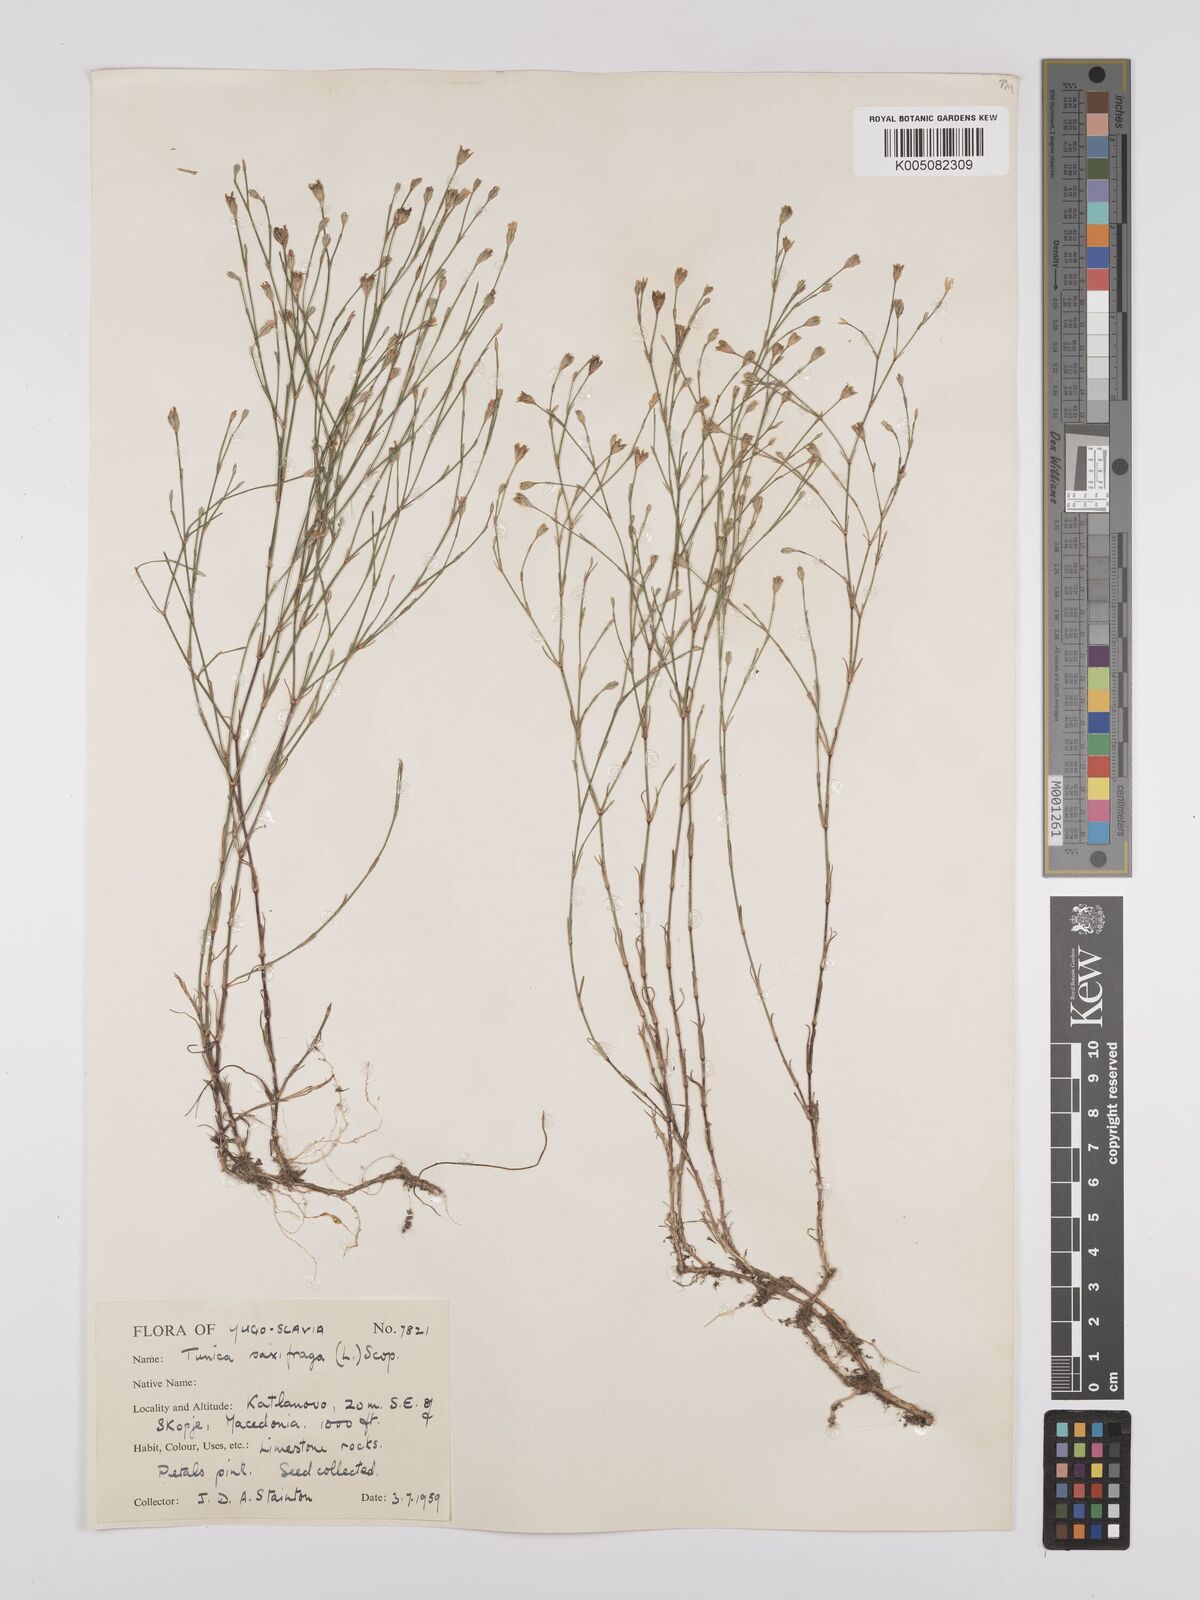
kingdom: Plantae
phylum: Tracheophyta
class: Magnoliopsida
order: Caryophyllales
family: Caryophyllaceae
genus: Petrorhagia
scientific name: Petrorhagia saxifraga
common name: Tunicflower
